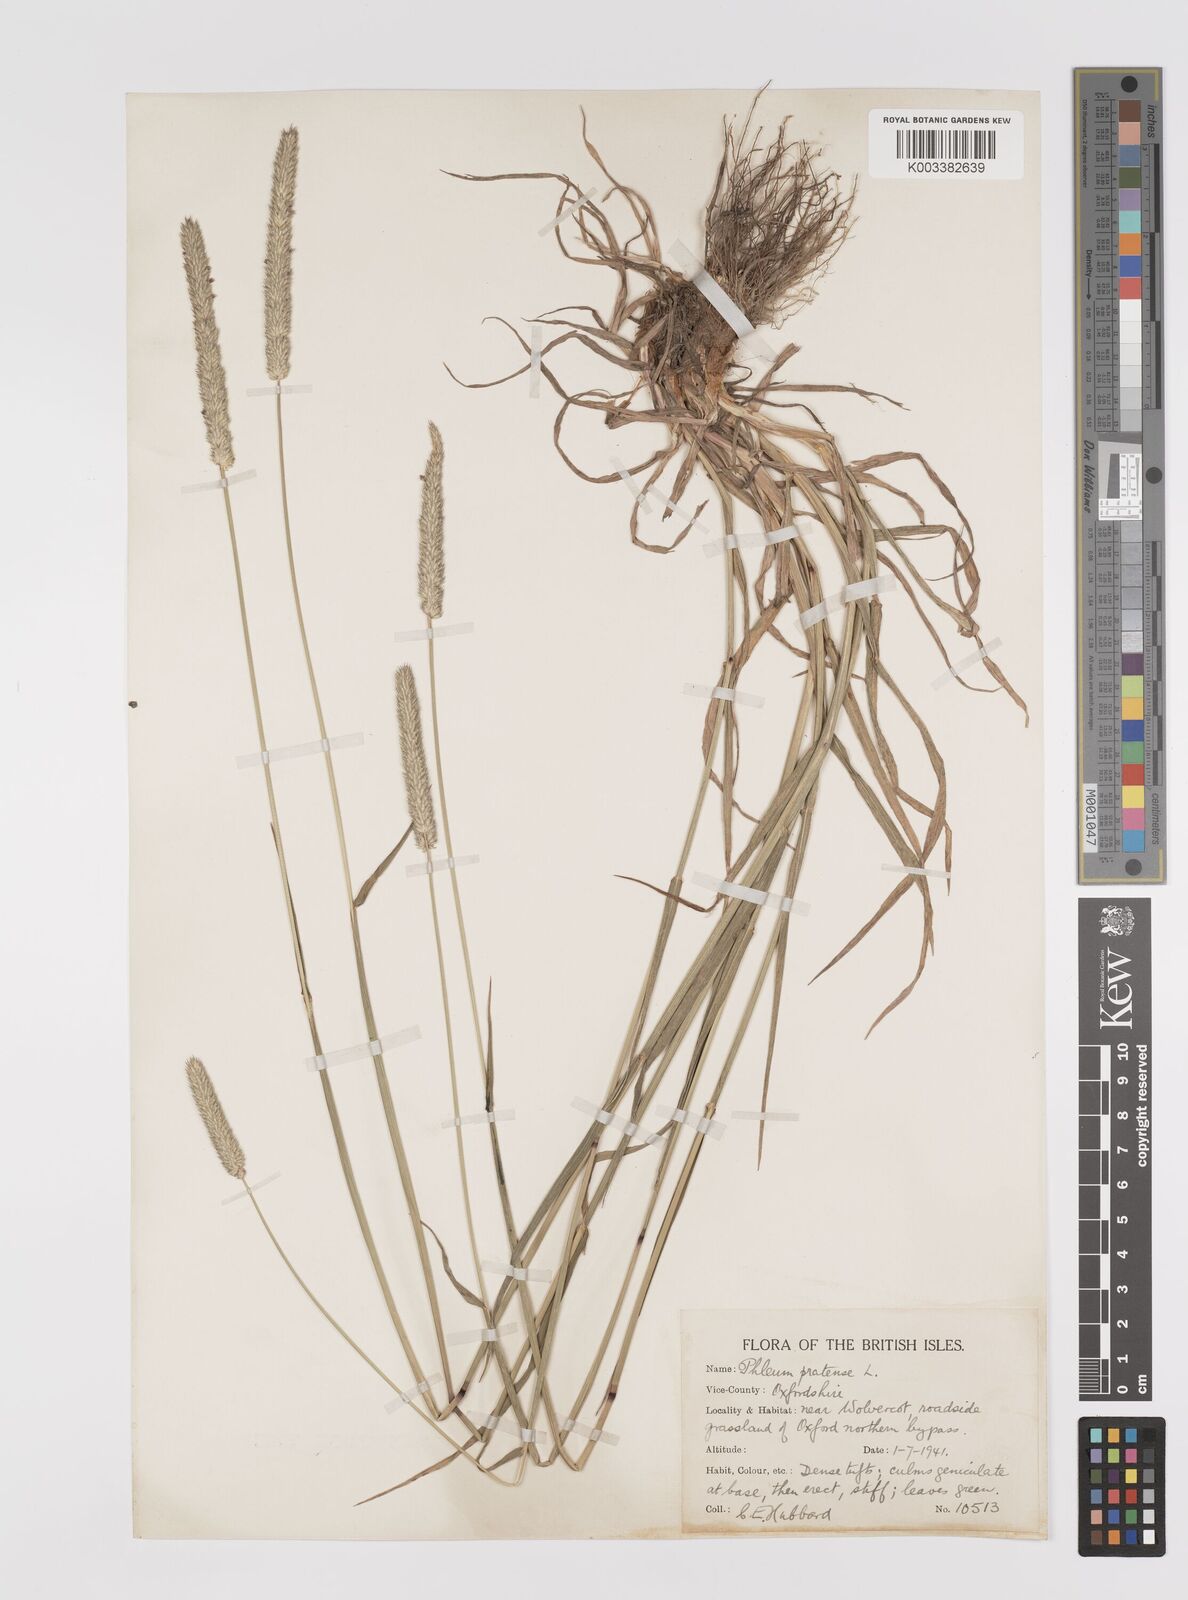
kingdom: Plantae
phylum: Tracheophyta
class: Liliopsida
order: Poales
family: Poaceae
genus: Phleum
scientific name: Phleum pratense
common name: Timothy grass
